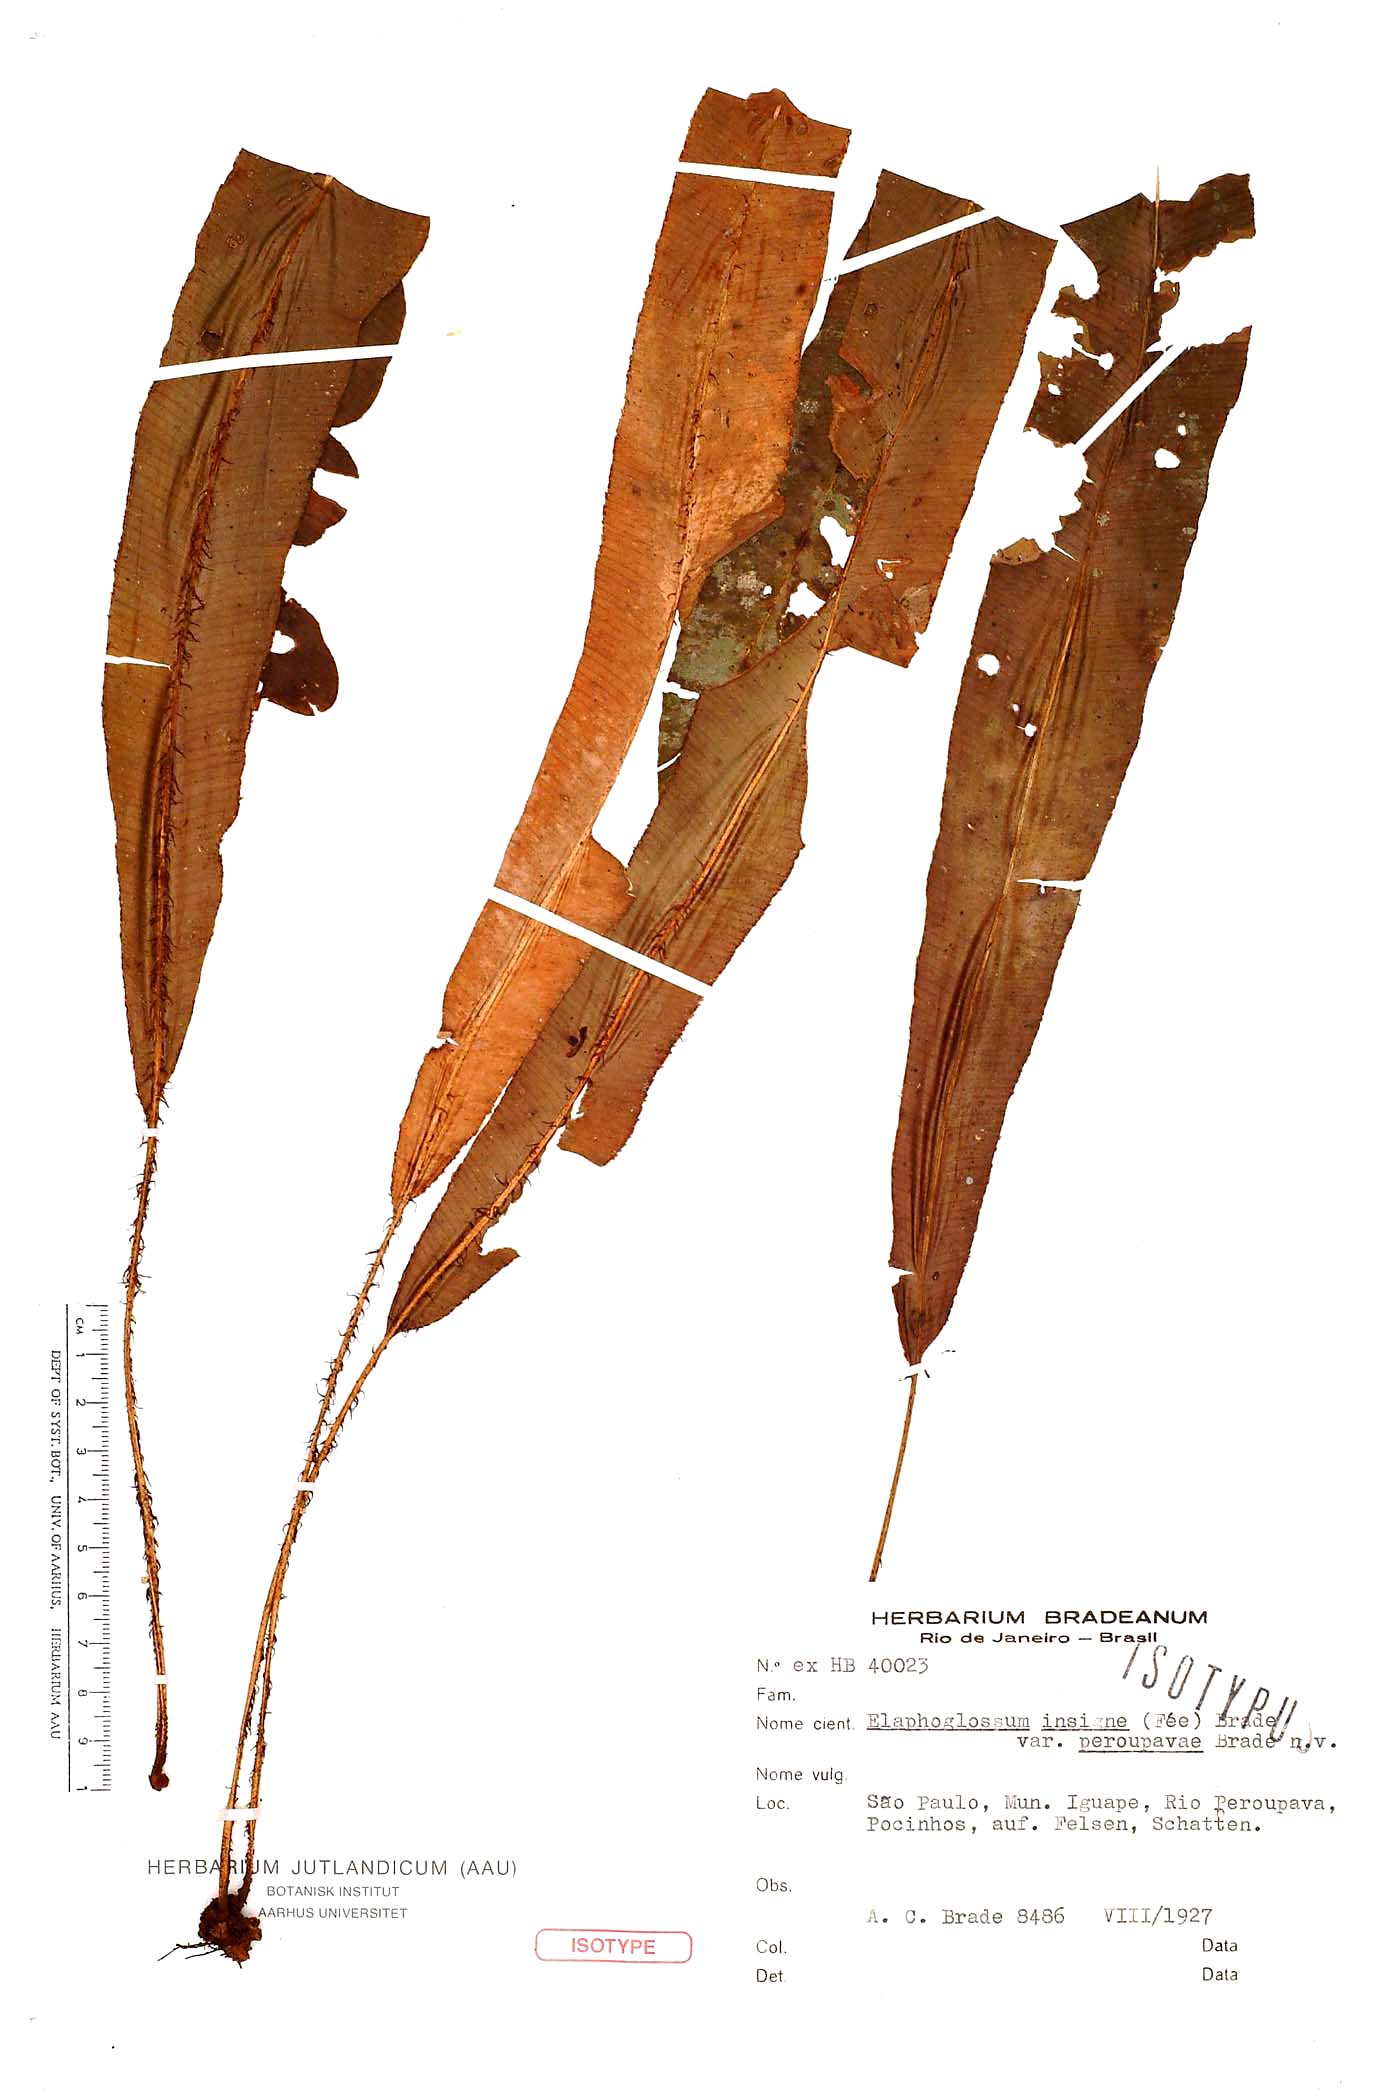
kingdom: Plantae
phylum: Tracheophyta
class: Polypodiopsida
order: Polypodiales
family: Dryopteridaceae
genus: Elaphoglossum
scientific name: Elaphoglossum prestonii
